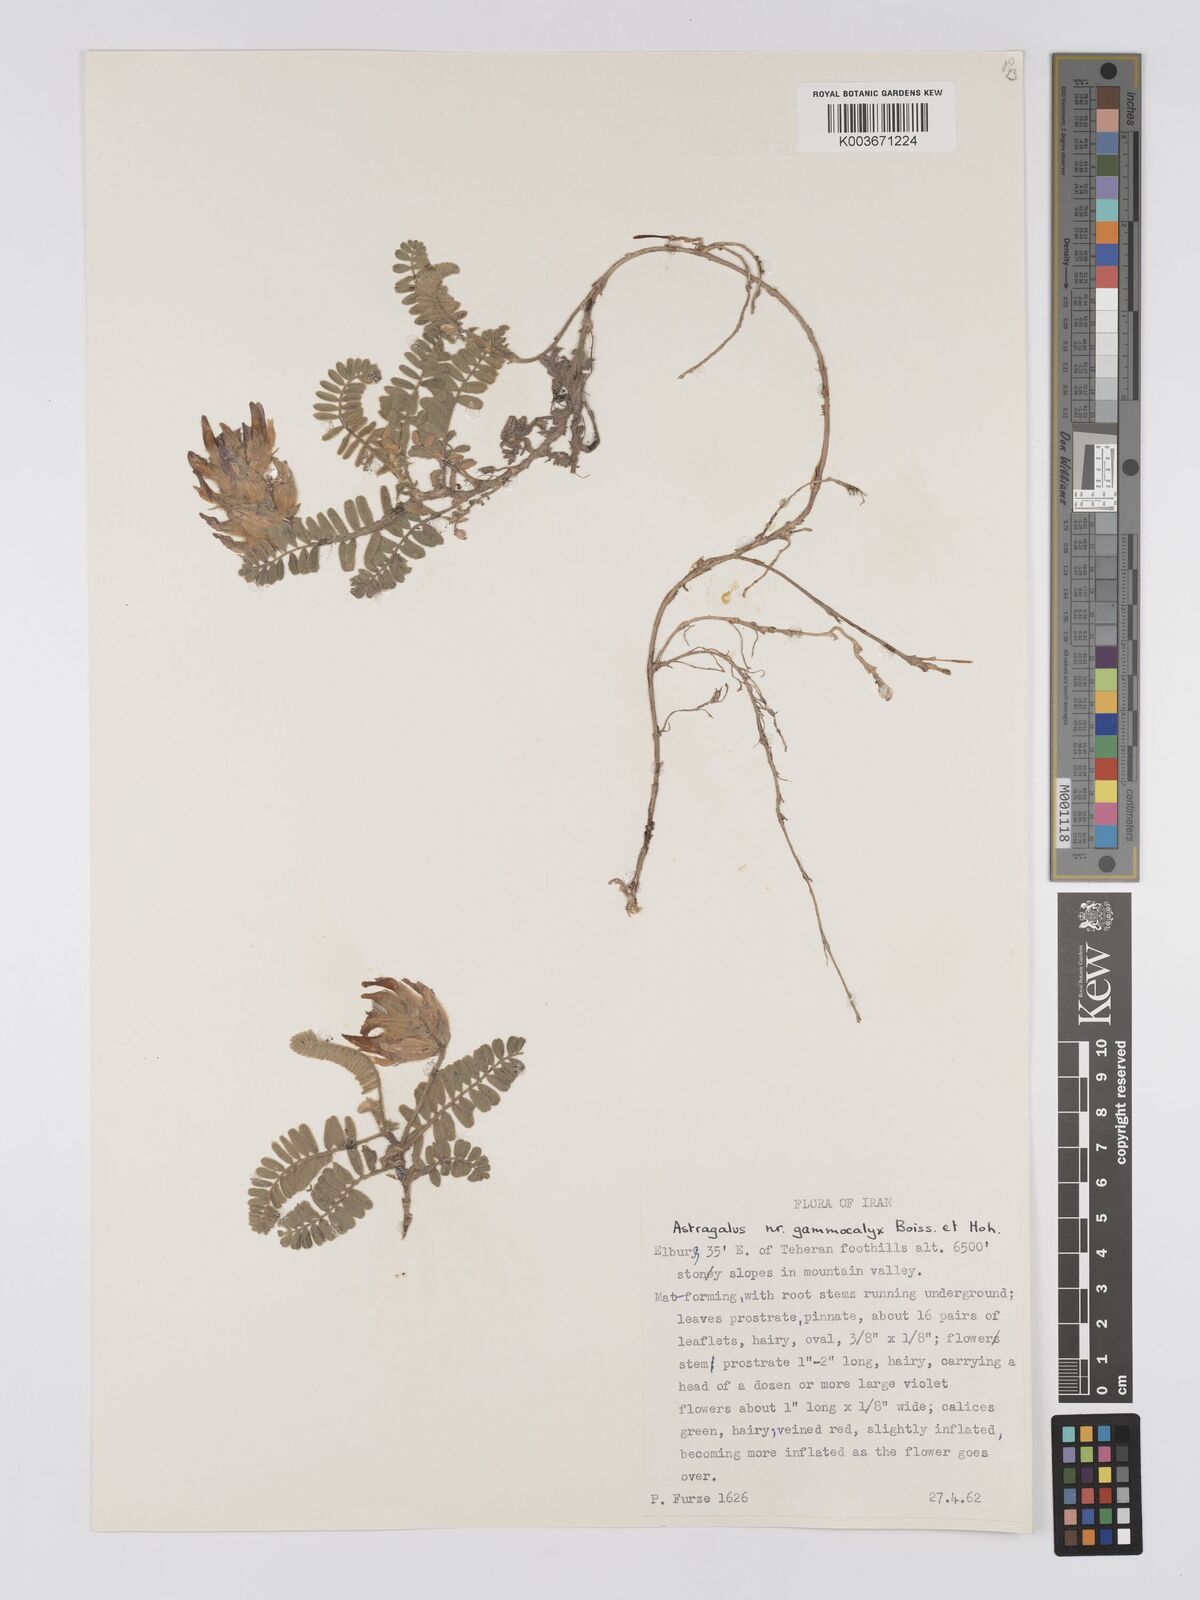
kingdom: Plantae
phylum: Tracheophyta
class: Magnoliopsida
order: Fabales
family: Fabaceae
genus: Astragalus
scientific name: Astragalus lineatus
